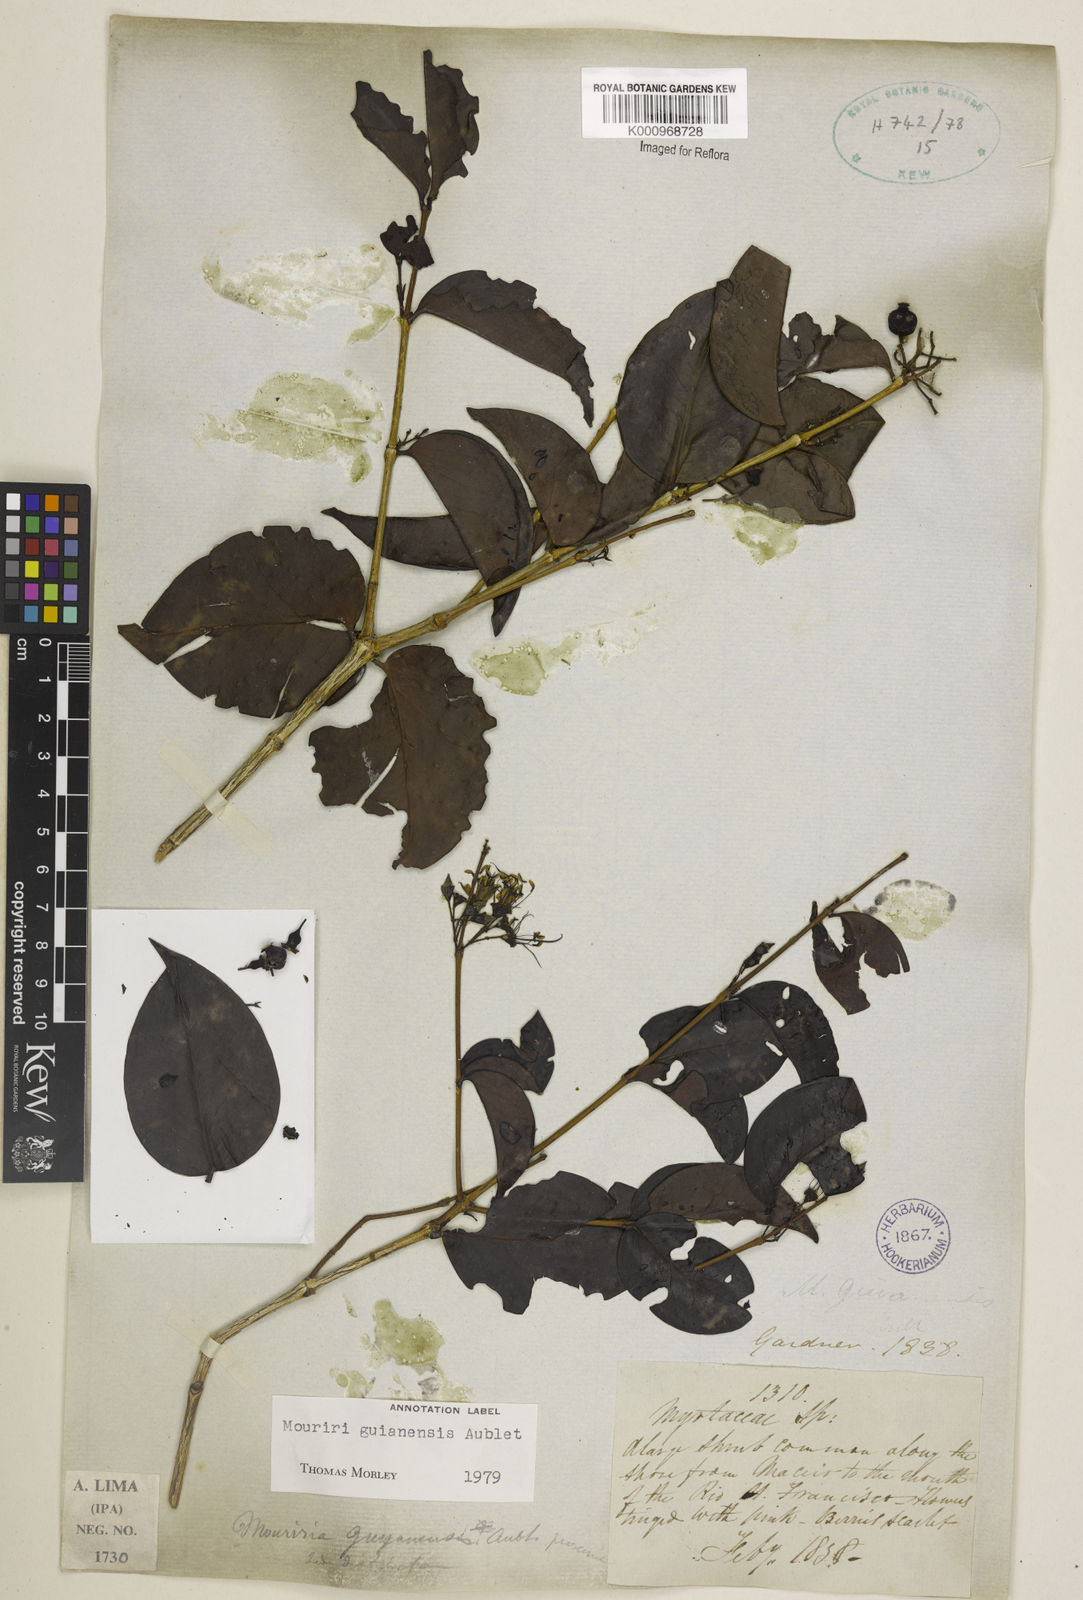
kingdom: Plantae
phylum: Tracheophyta
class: Magnoliopsida
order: Myrtales
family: Melastomataceae
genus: Mouriri
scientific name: Mouriri guianensis
